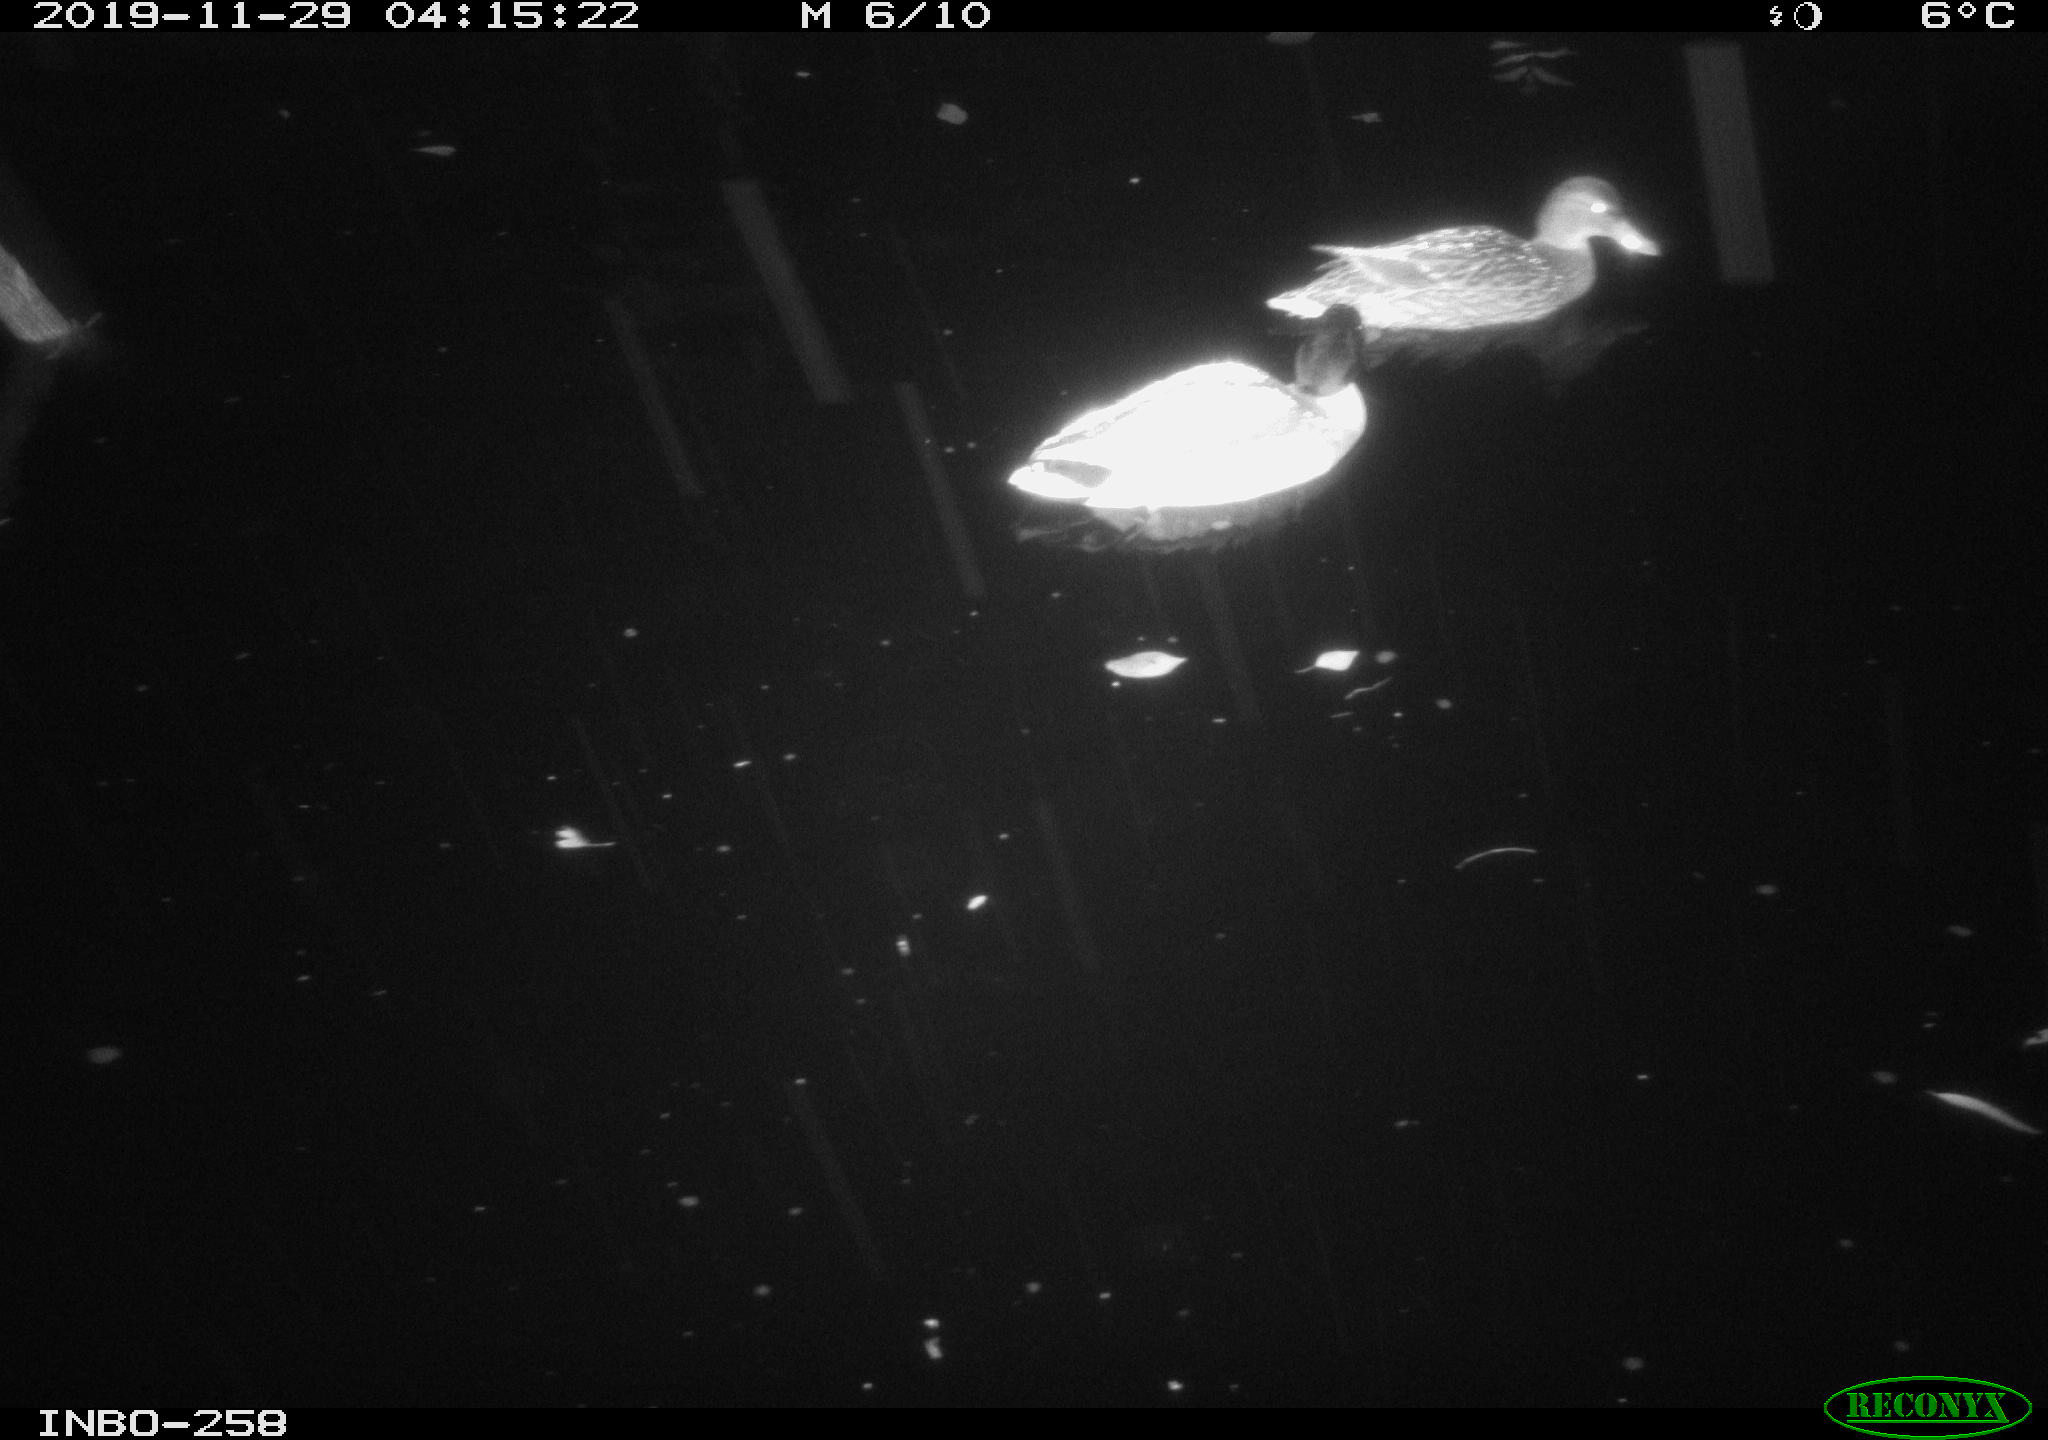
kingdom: Animalia
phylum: Chordata
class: Aves
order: Anseriformes
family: Anatidae
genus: Anas
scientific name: Anas platyrhynchos
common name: Mallard
